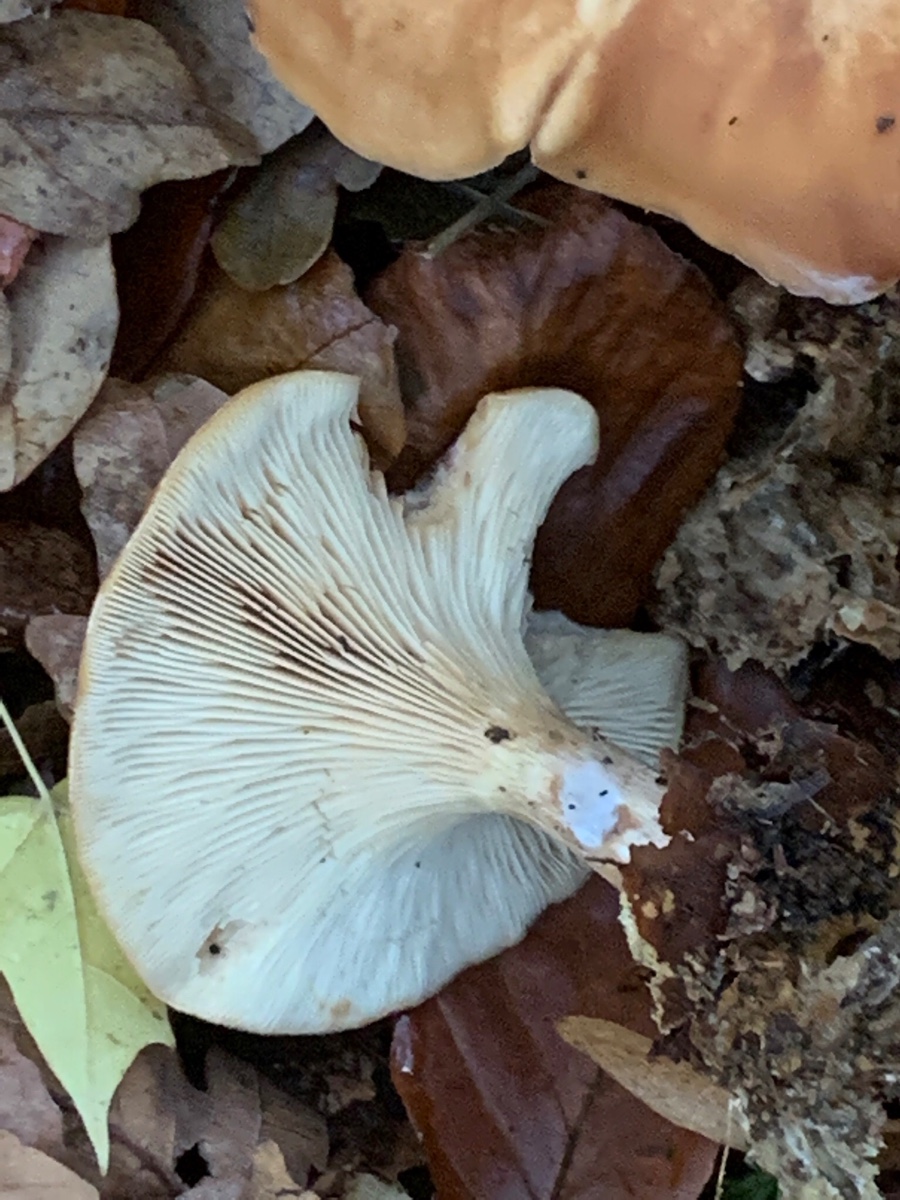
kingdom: Fungi
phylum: Basidiomycota
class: Agaricomycetes
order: Agaricales
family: Tricholomataceae
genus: Paralepista
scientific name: Paralepista flaccida
